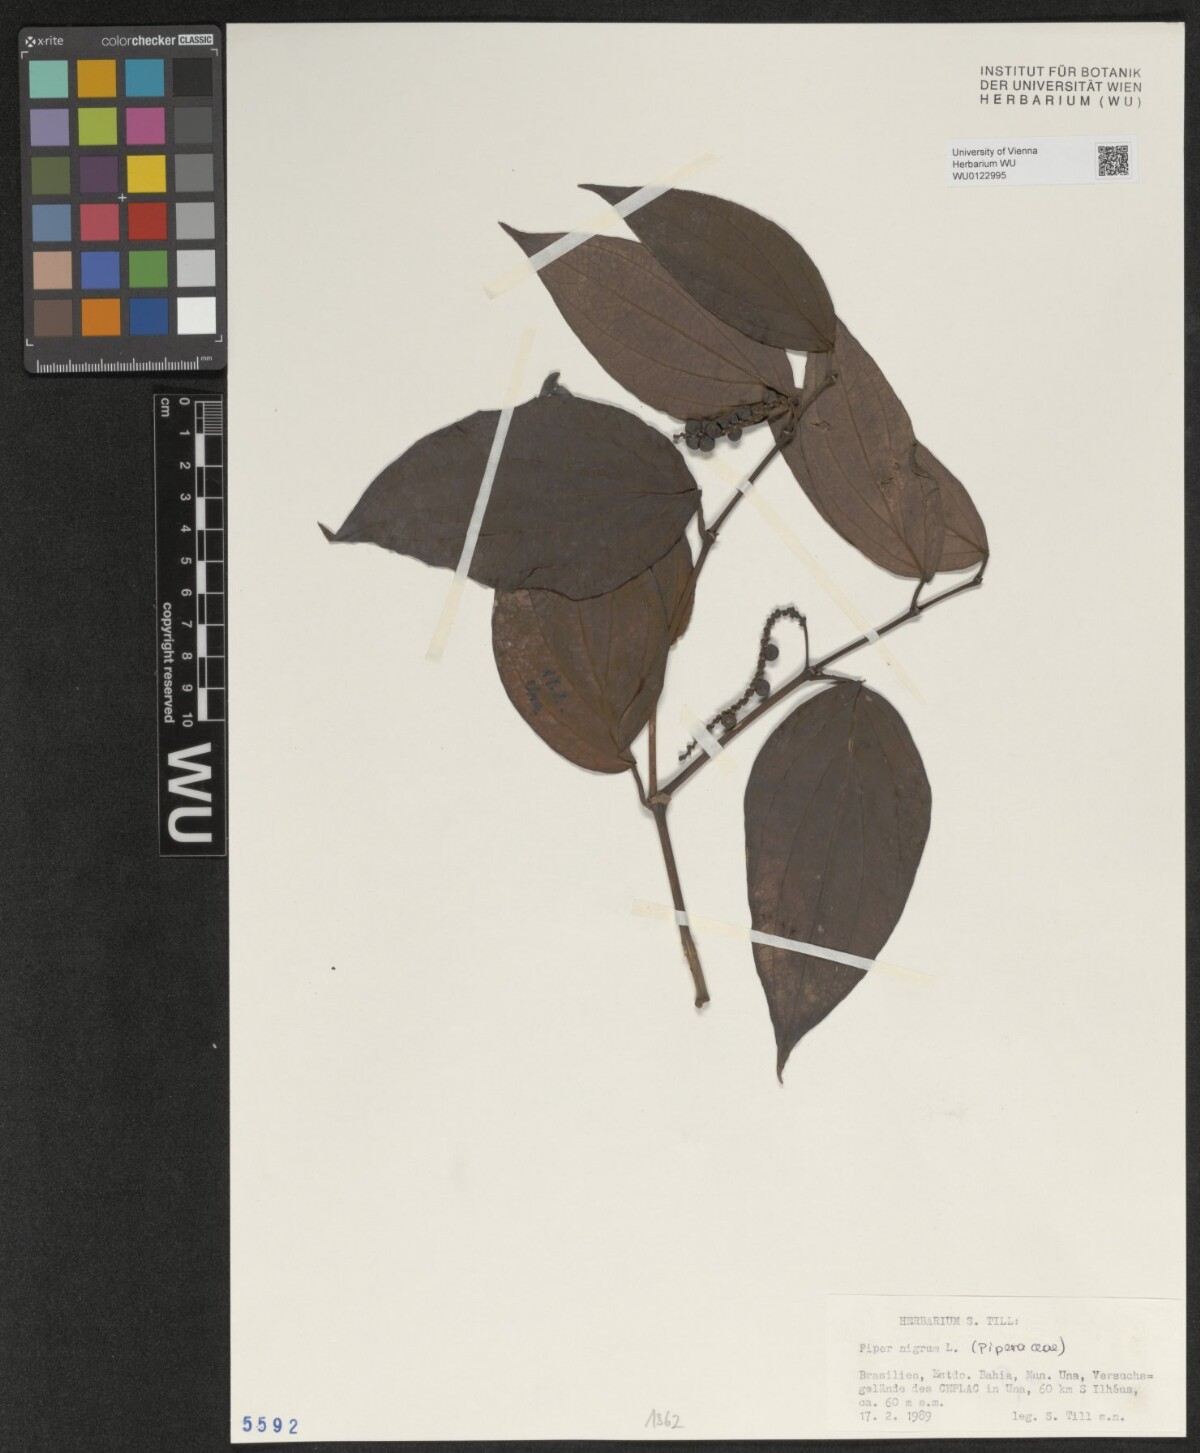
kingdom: Plantae
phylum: Tracheophyta
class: Magnoliopsida
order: Piperales
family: Piperaceae
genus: Piper
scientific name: Piper nigrum
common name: Black pepper
